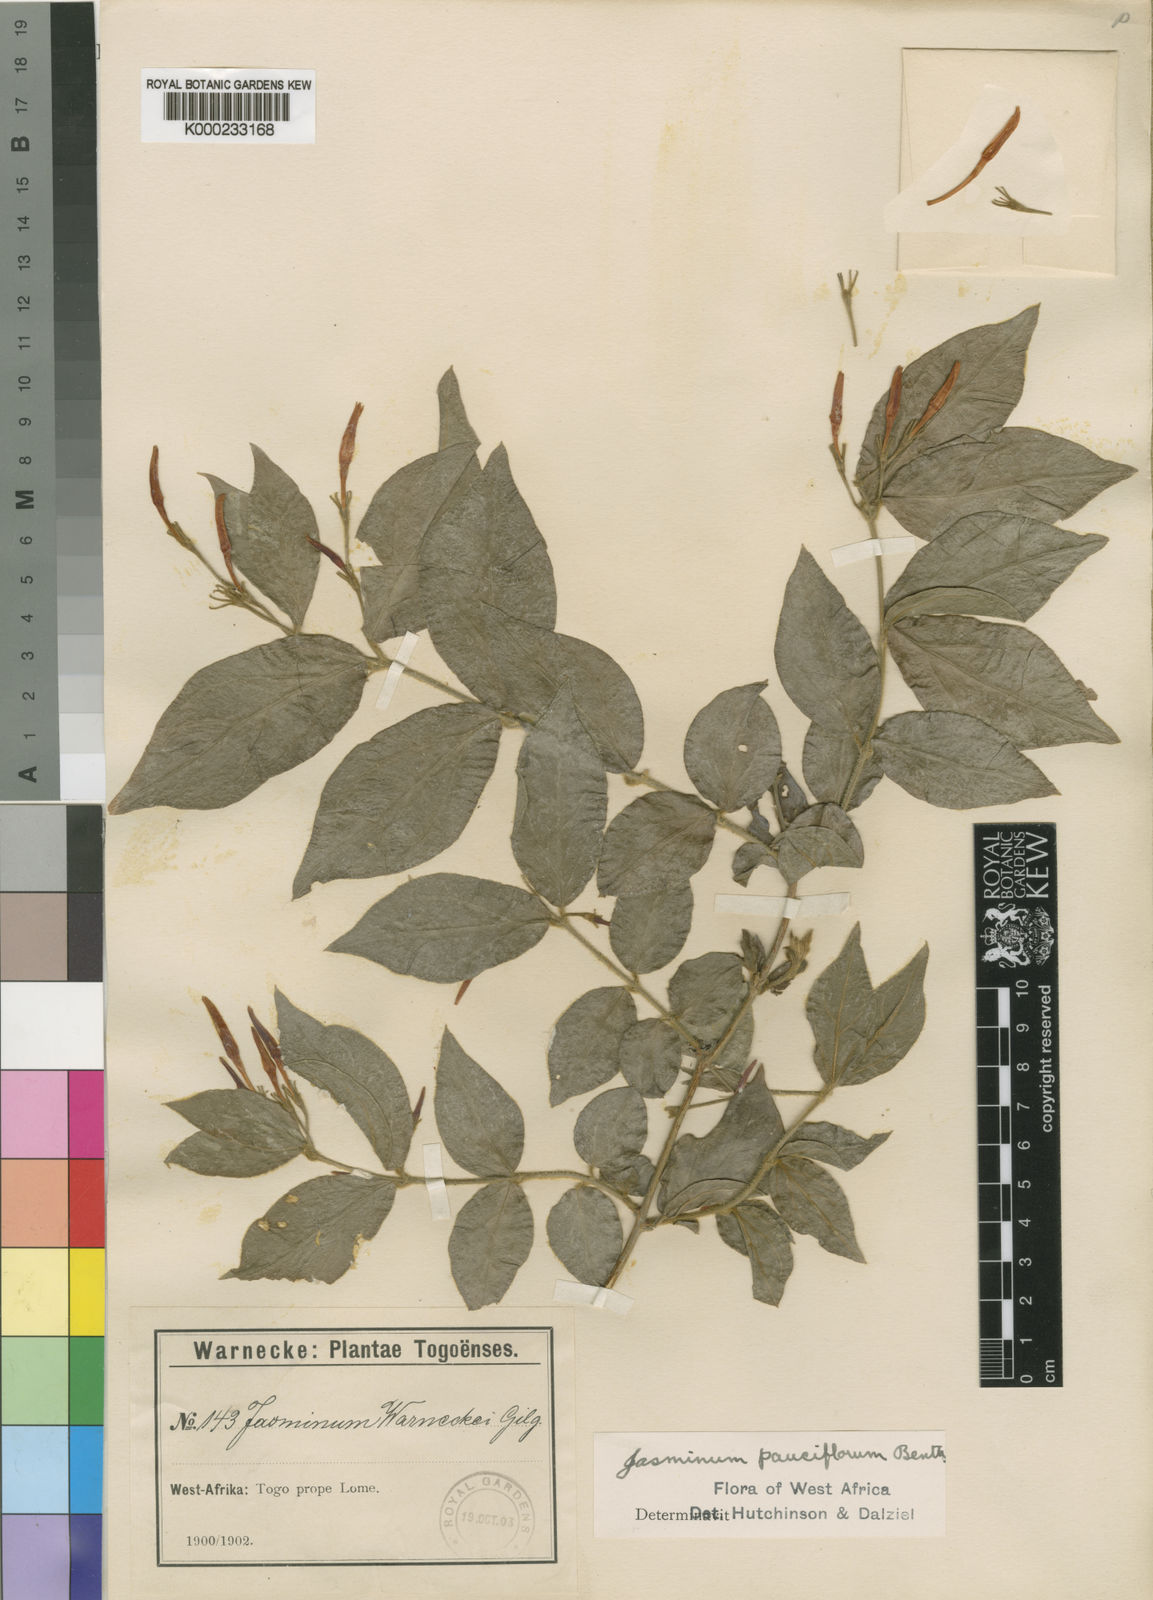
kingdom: Plantae
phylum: Tracheophyta
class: Magnoliopsida
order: Lamiales
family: Oleaceae
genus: Jasminum
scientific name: Jasminum pauciflorum
